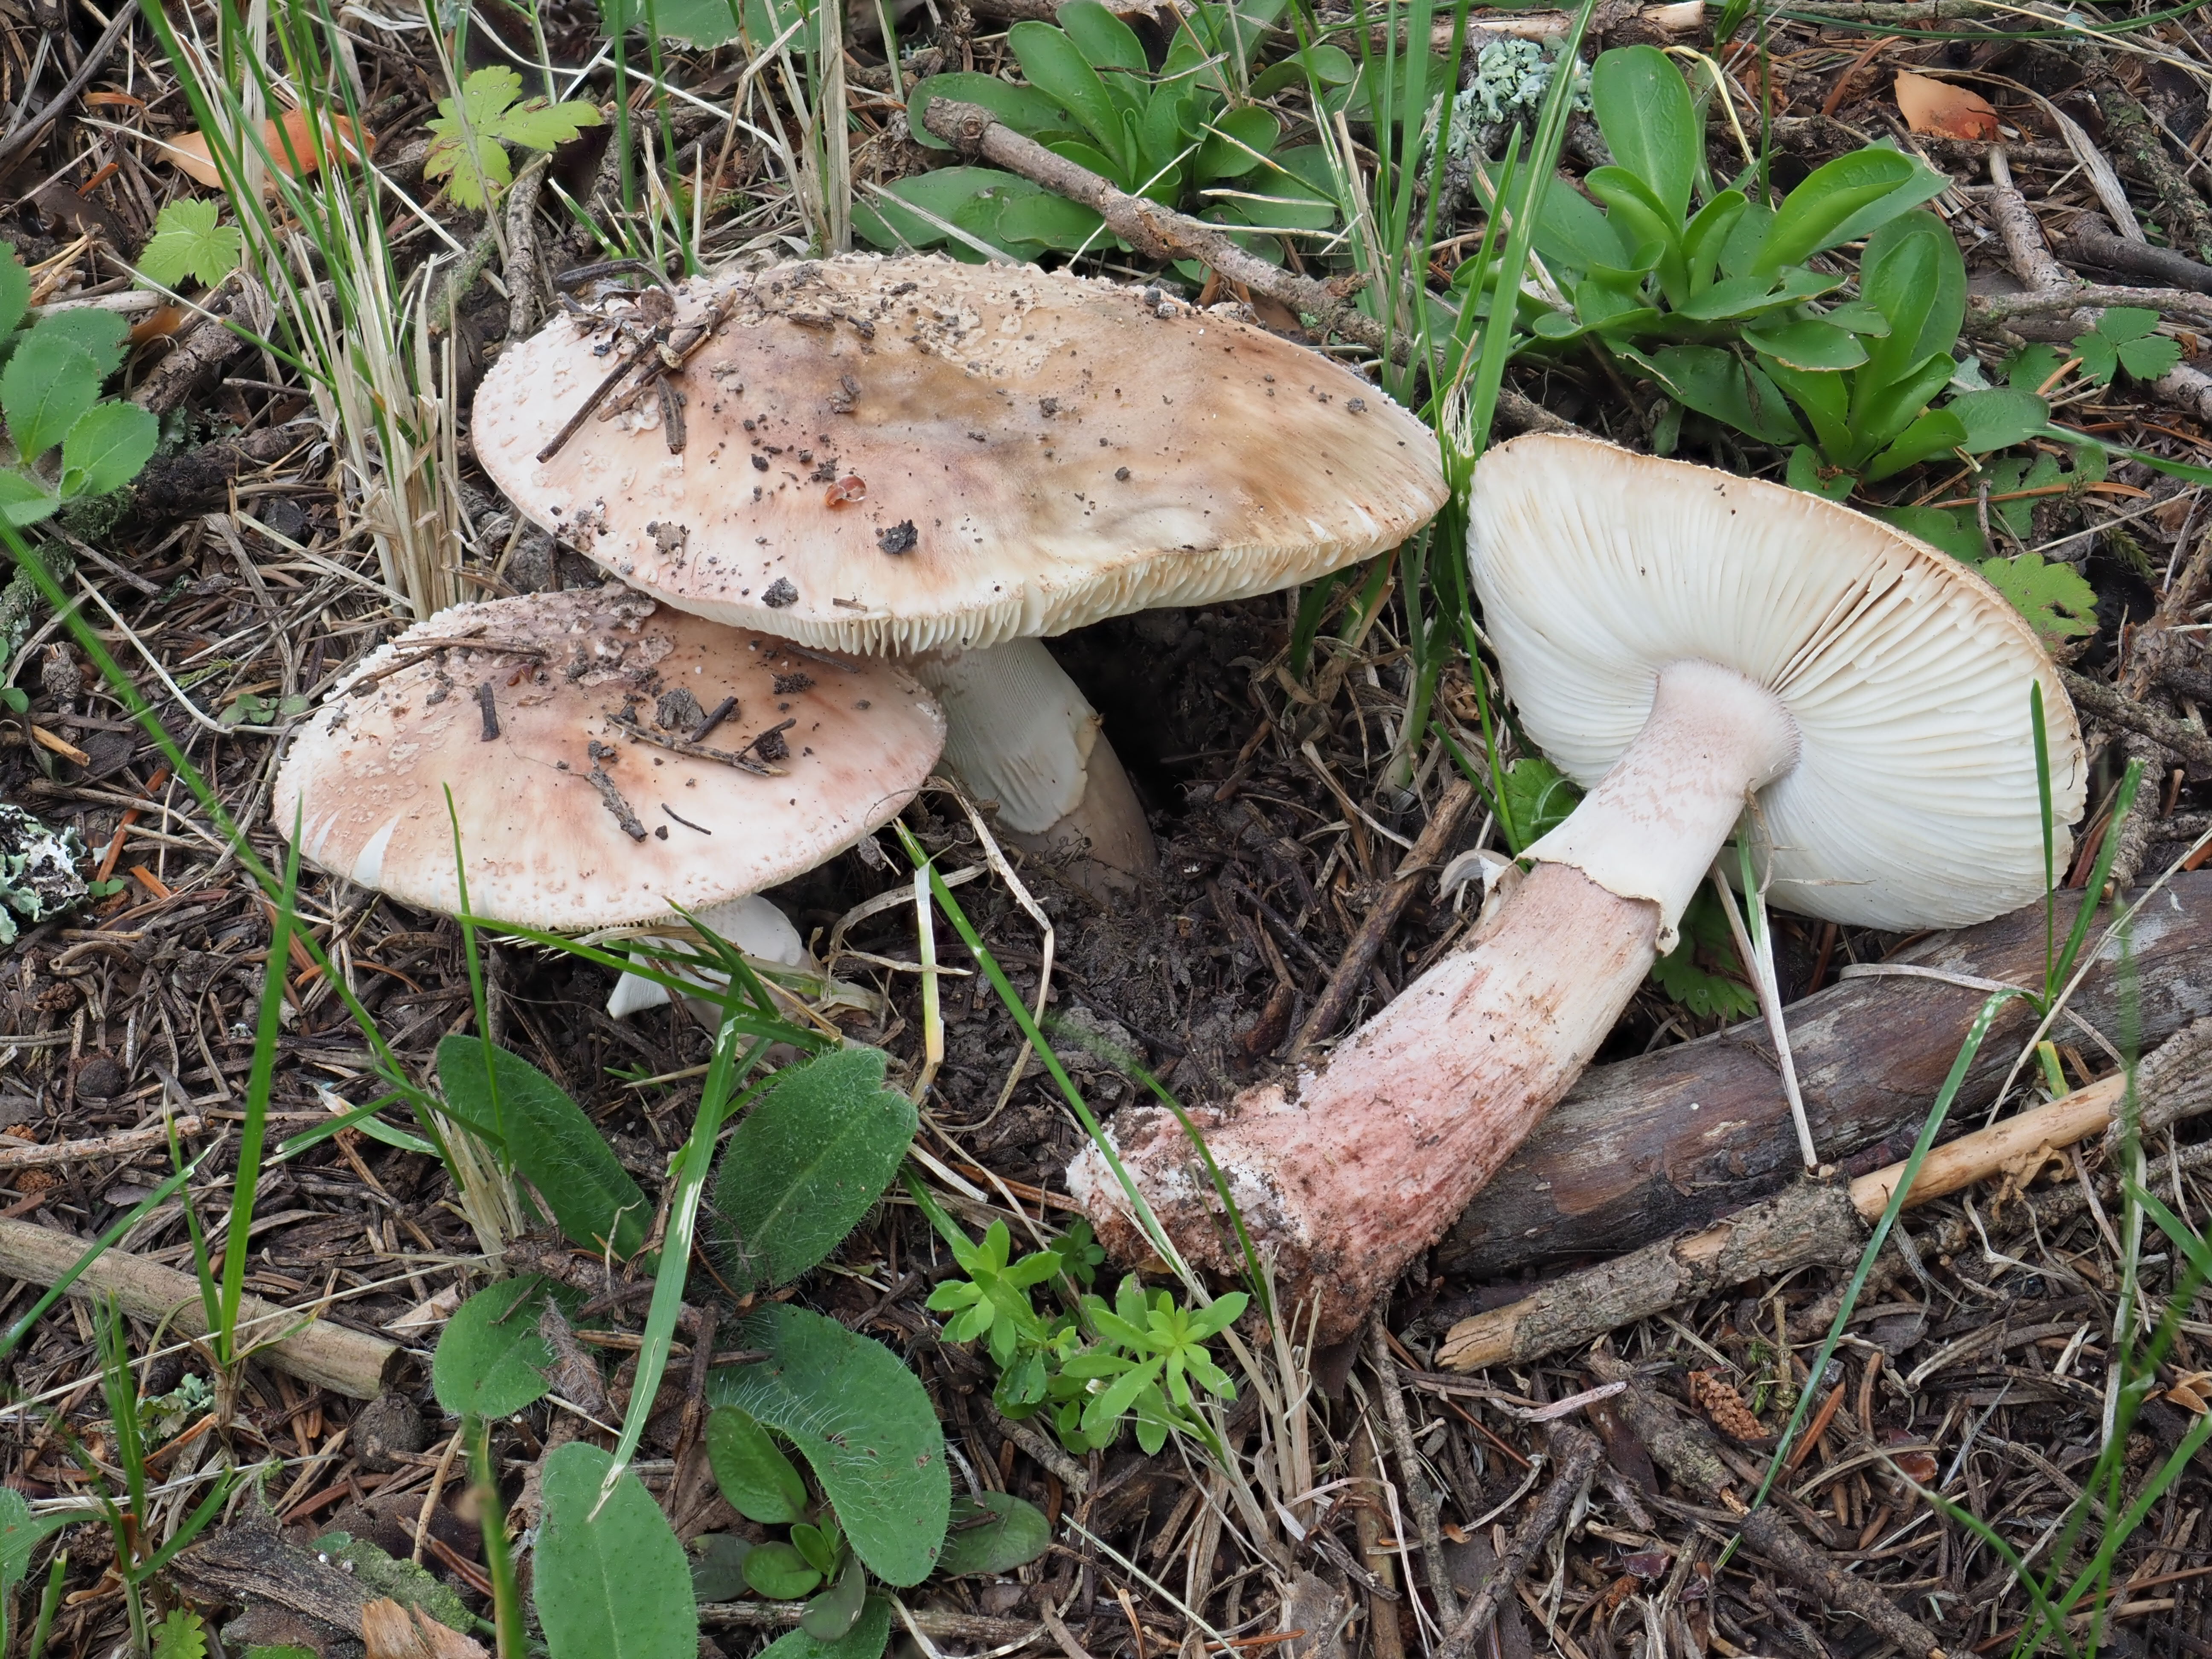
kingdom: Fungi
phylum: Basidiomycota
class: Agaricomycetes
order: Agaricales
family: Amanitaceae
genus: Amanita
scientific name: Amanita rubescens
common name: Blusher
